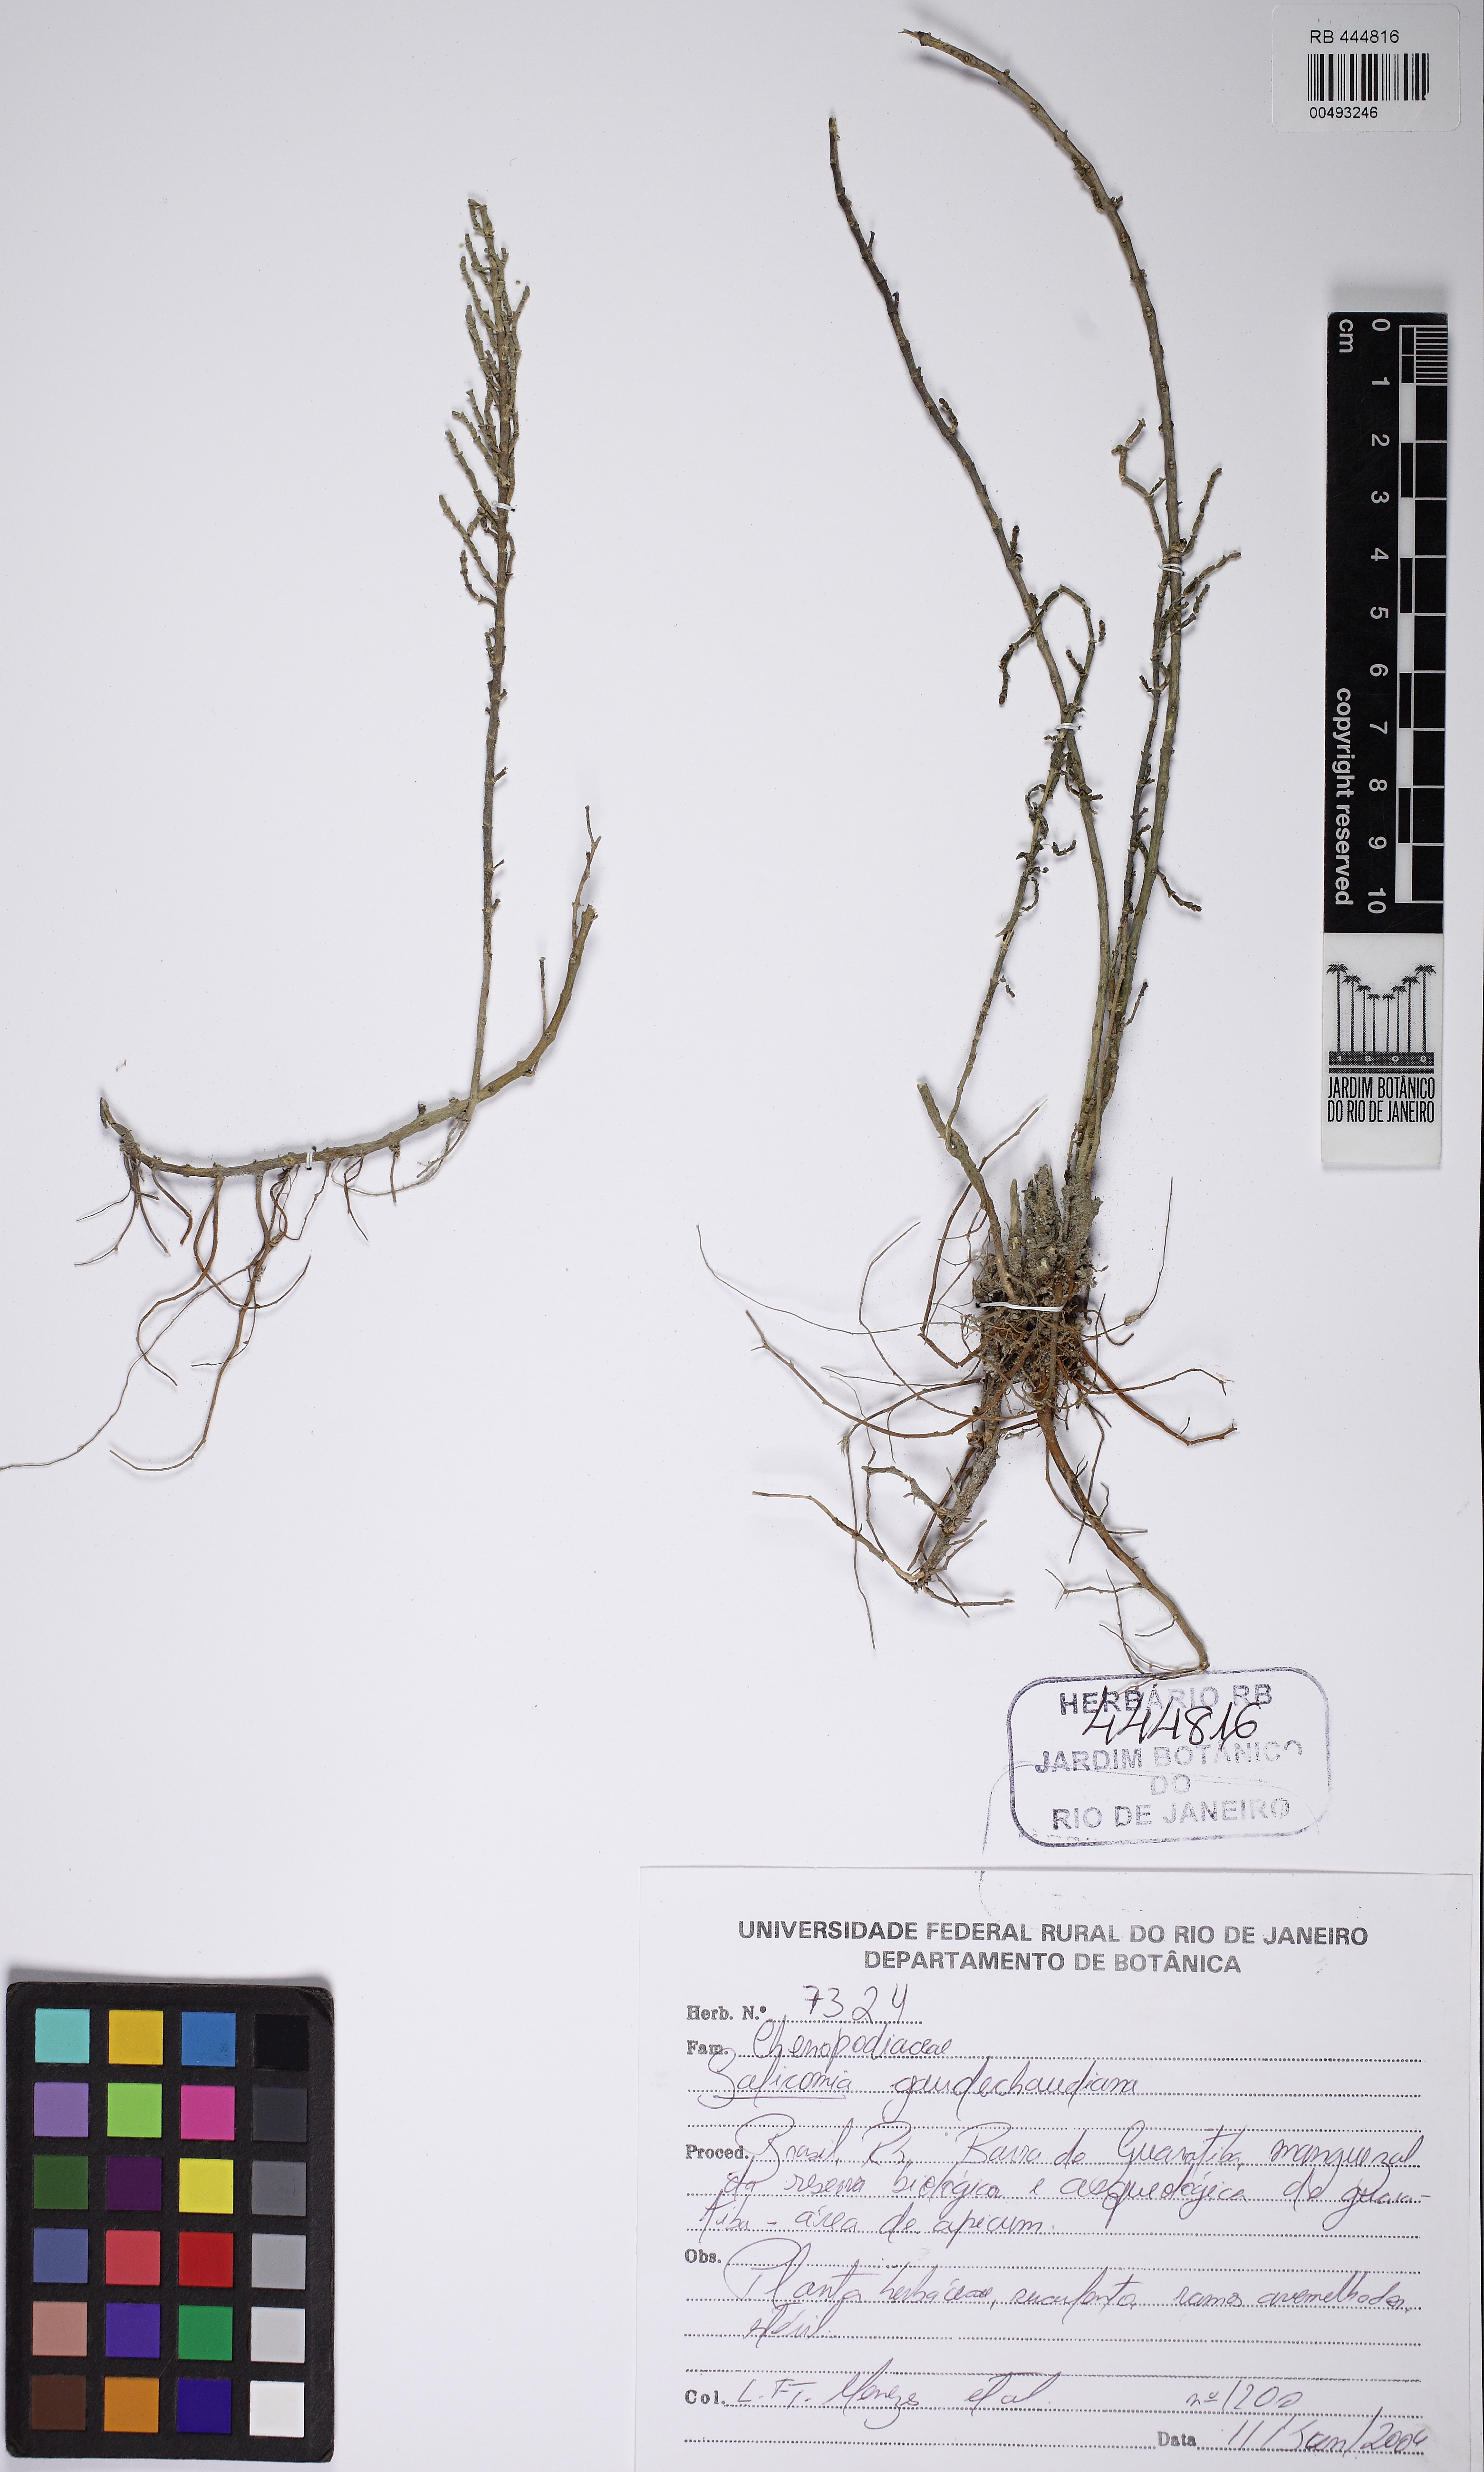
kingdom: Plantae
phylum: Tracheophyta
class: Magnoliopsida
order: Caryophyllales
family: Amaranthaceae
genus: Salicornia
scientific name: Salicornia neei
